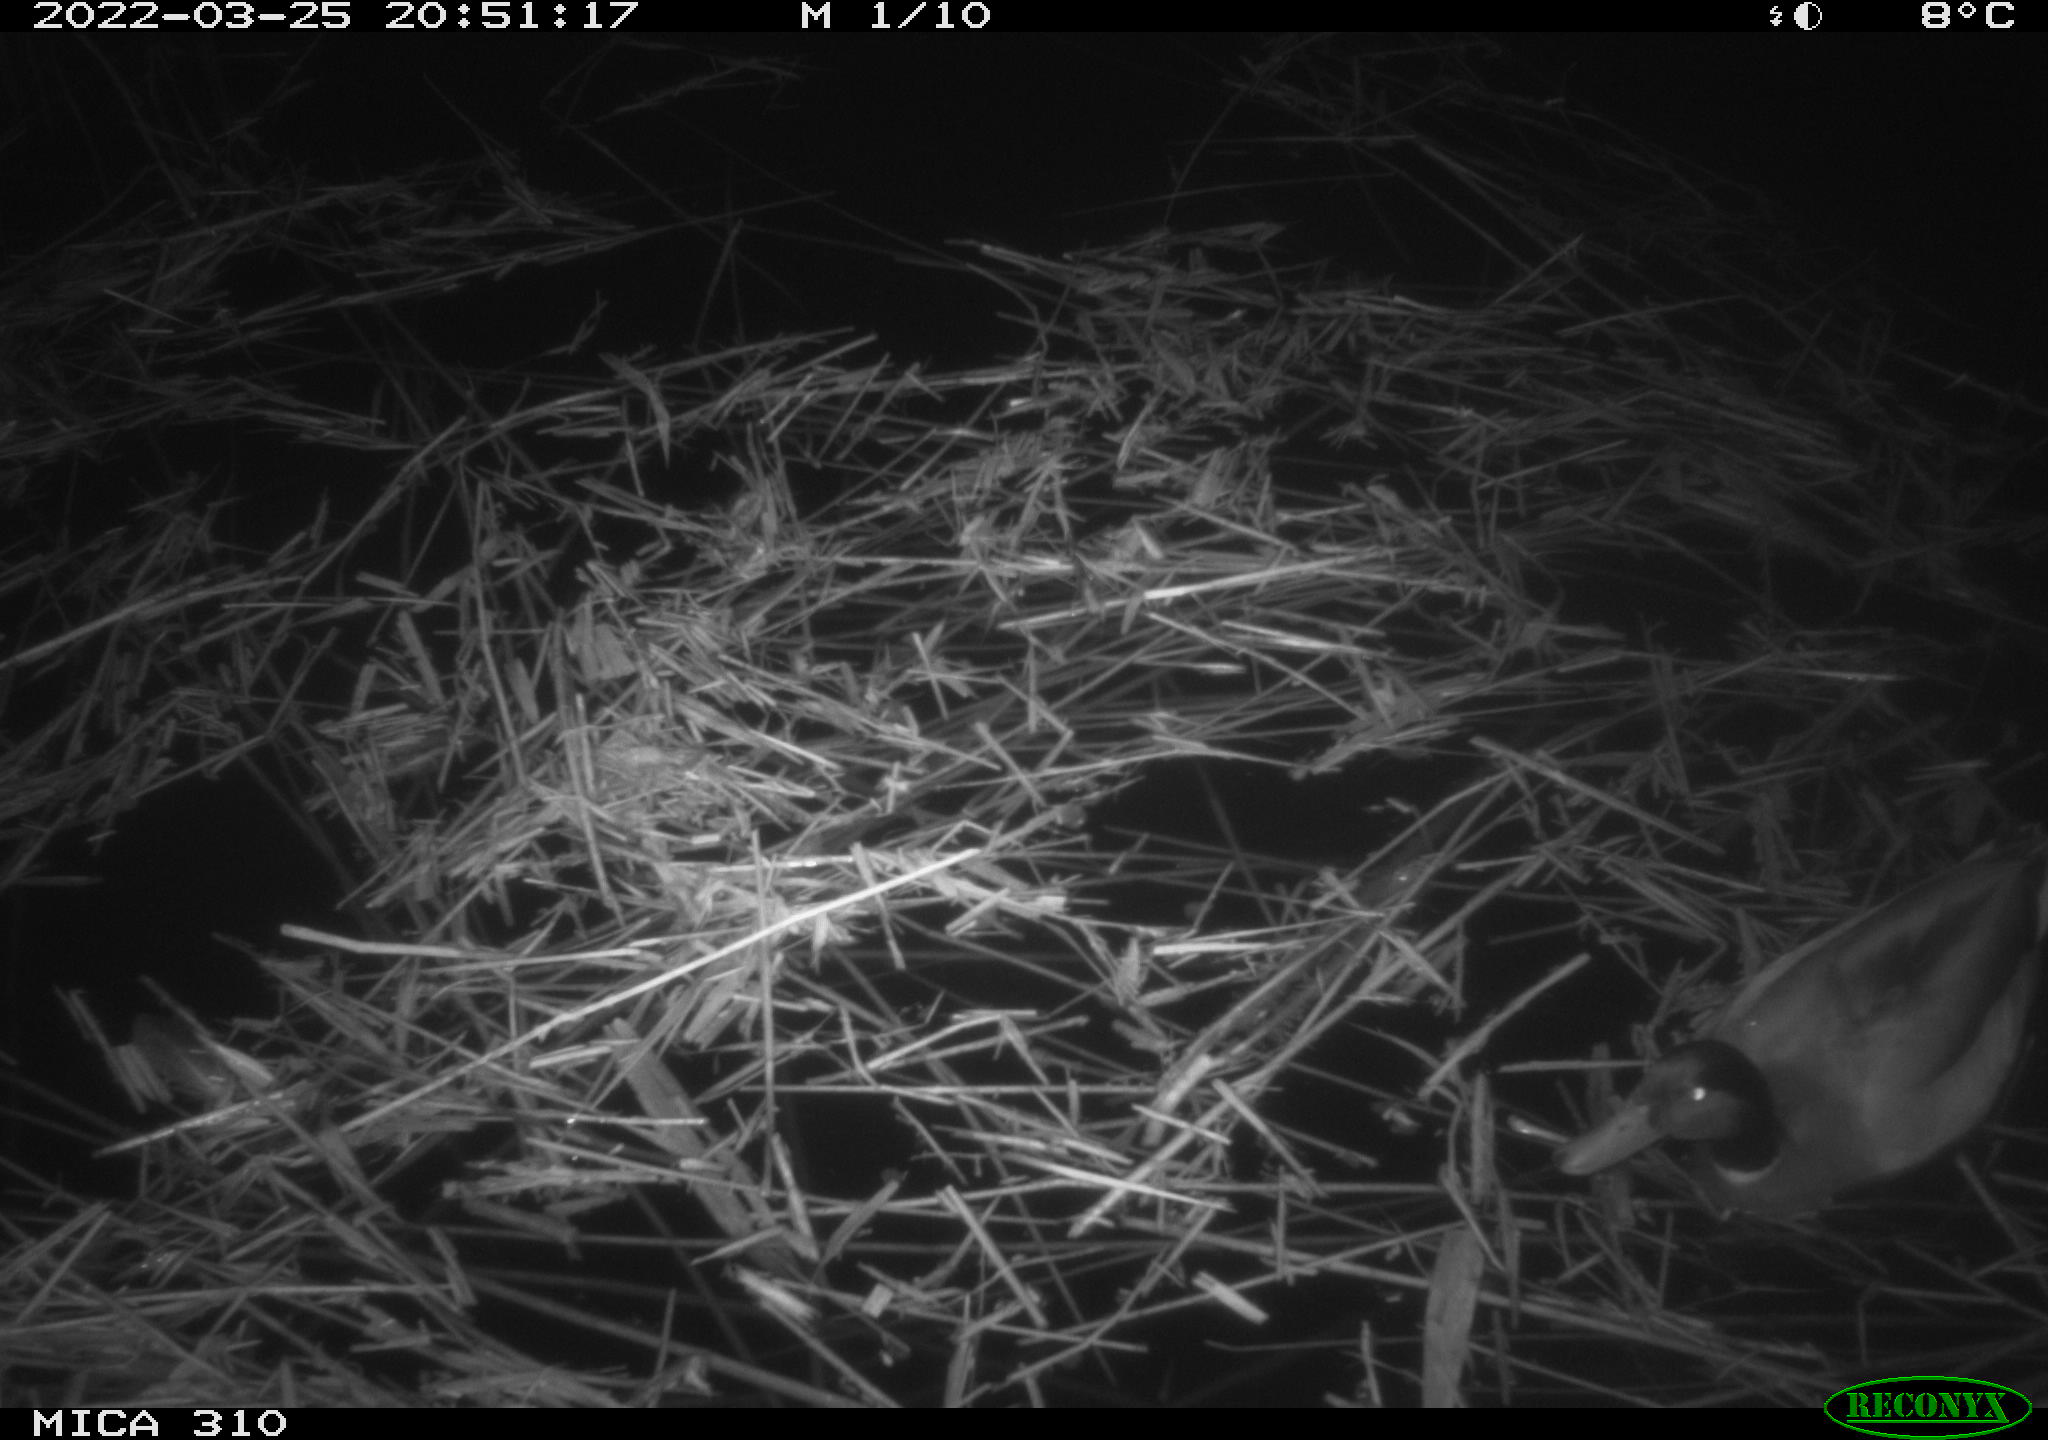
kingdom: Animalia
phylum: Chordata
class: Aves
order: Gruiformes
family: Rallidae
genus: Gallinula
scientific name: Gallinula chloropus
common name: Common moorhen
